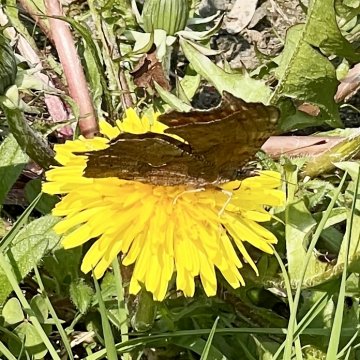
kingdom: Animalia
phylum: Arthropoda
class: Insecta
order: Lepidoptera
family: Nymphalidae
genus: Polygonia
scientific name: Polygonia comma
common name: Eastern Comma
